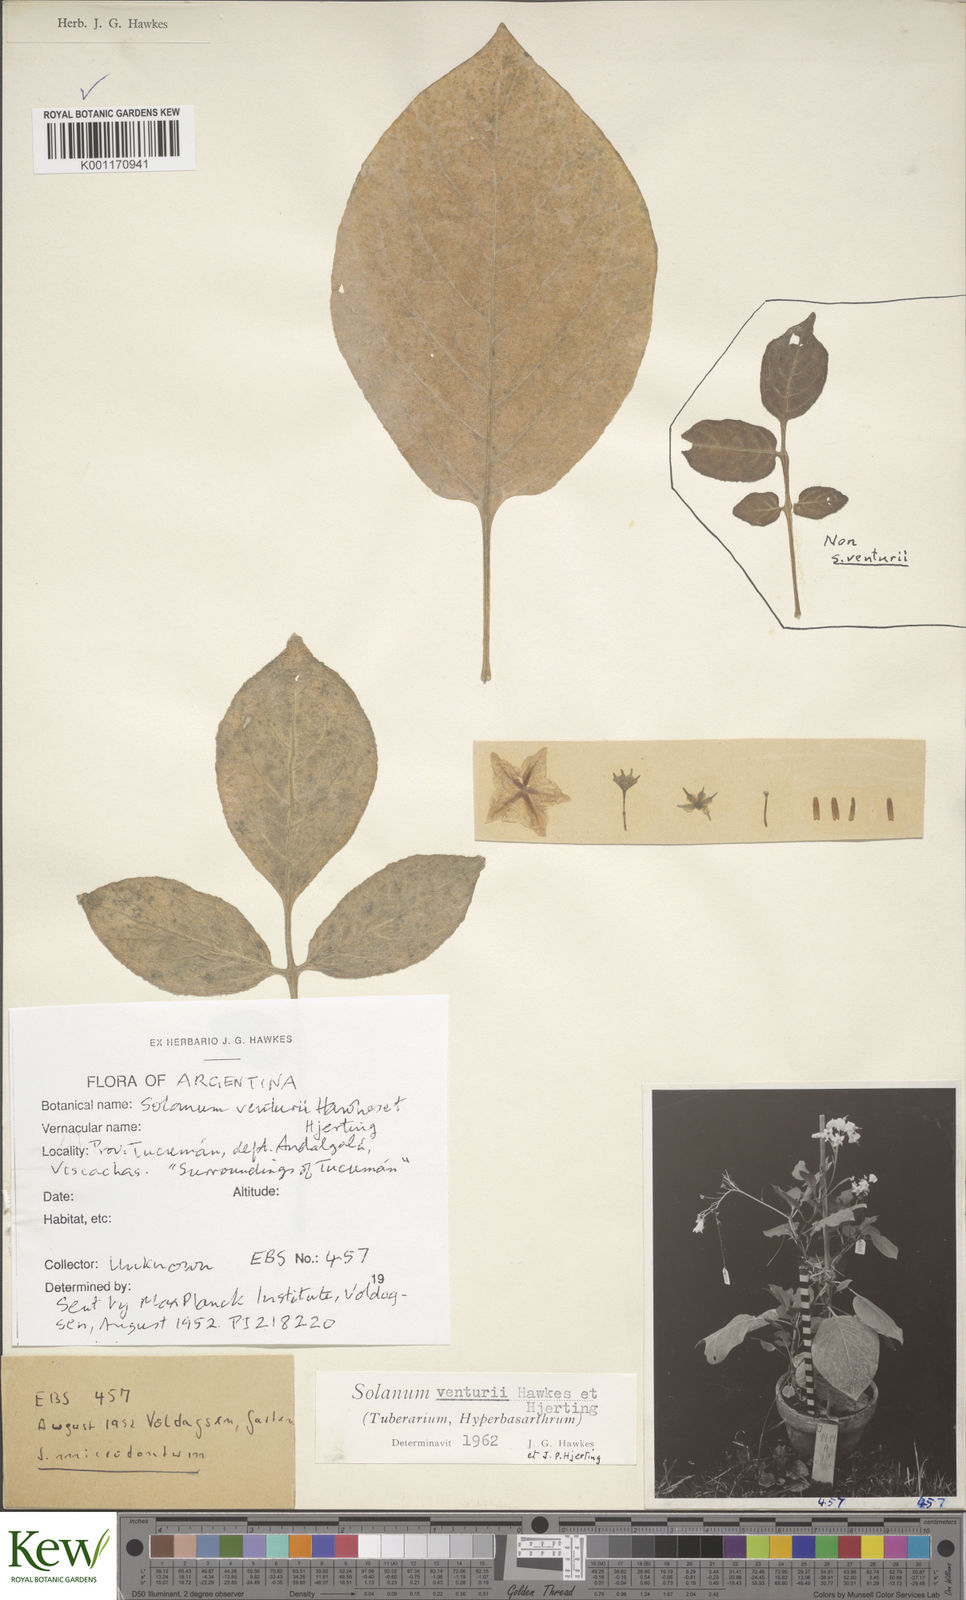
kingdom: Plantae
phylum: Tracheophyta
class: Magnoliopsida
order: Solanales
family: Solanaceae
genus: Solanum
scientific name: Solanum venturii
